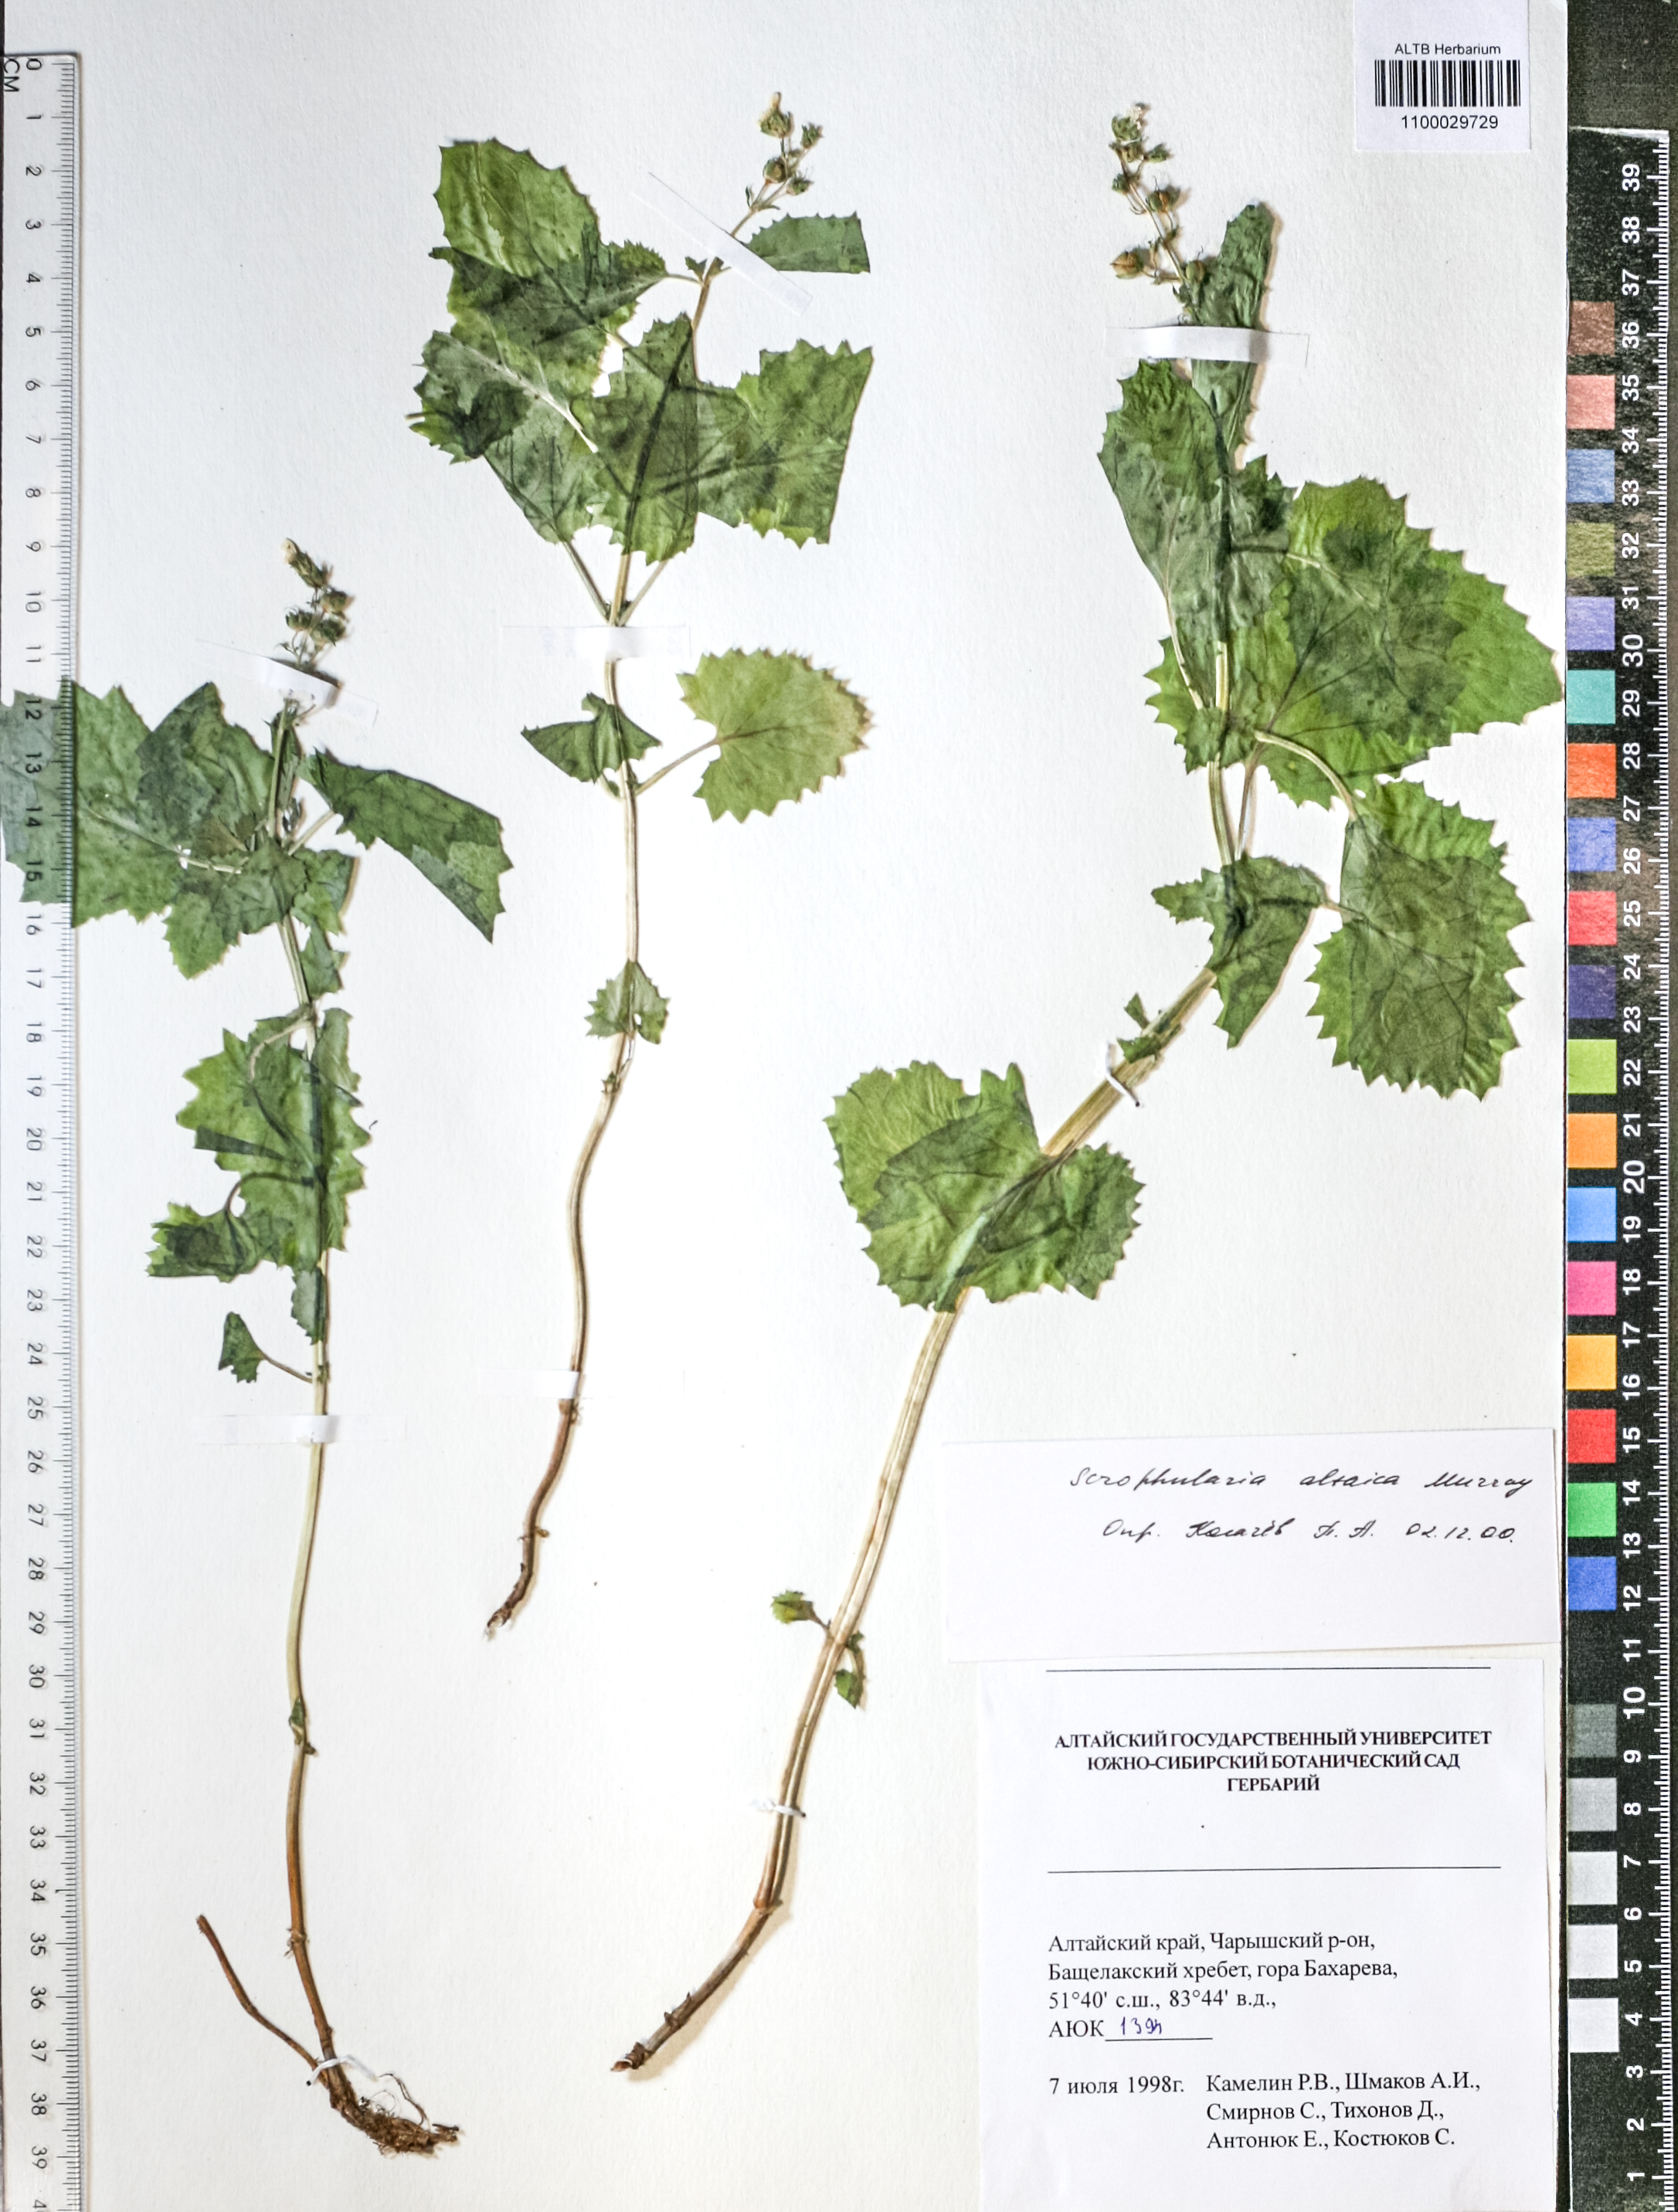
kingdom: Plantae
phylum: Tracheophyta
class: Magnoliopsida
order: Lamiales
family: Scrophulariaceae
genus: Scrophularia
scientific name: Scrophularia altaica
